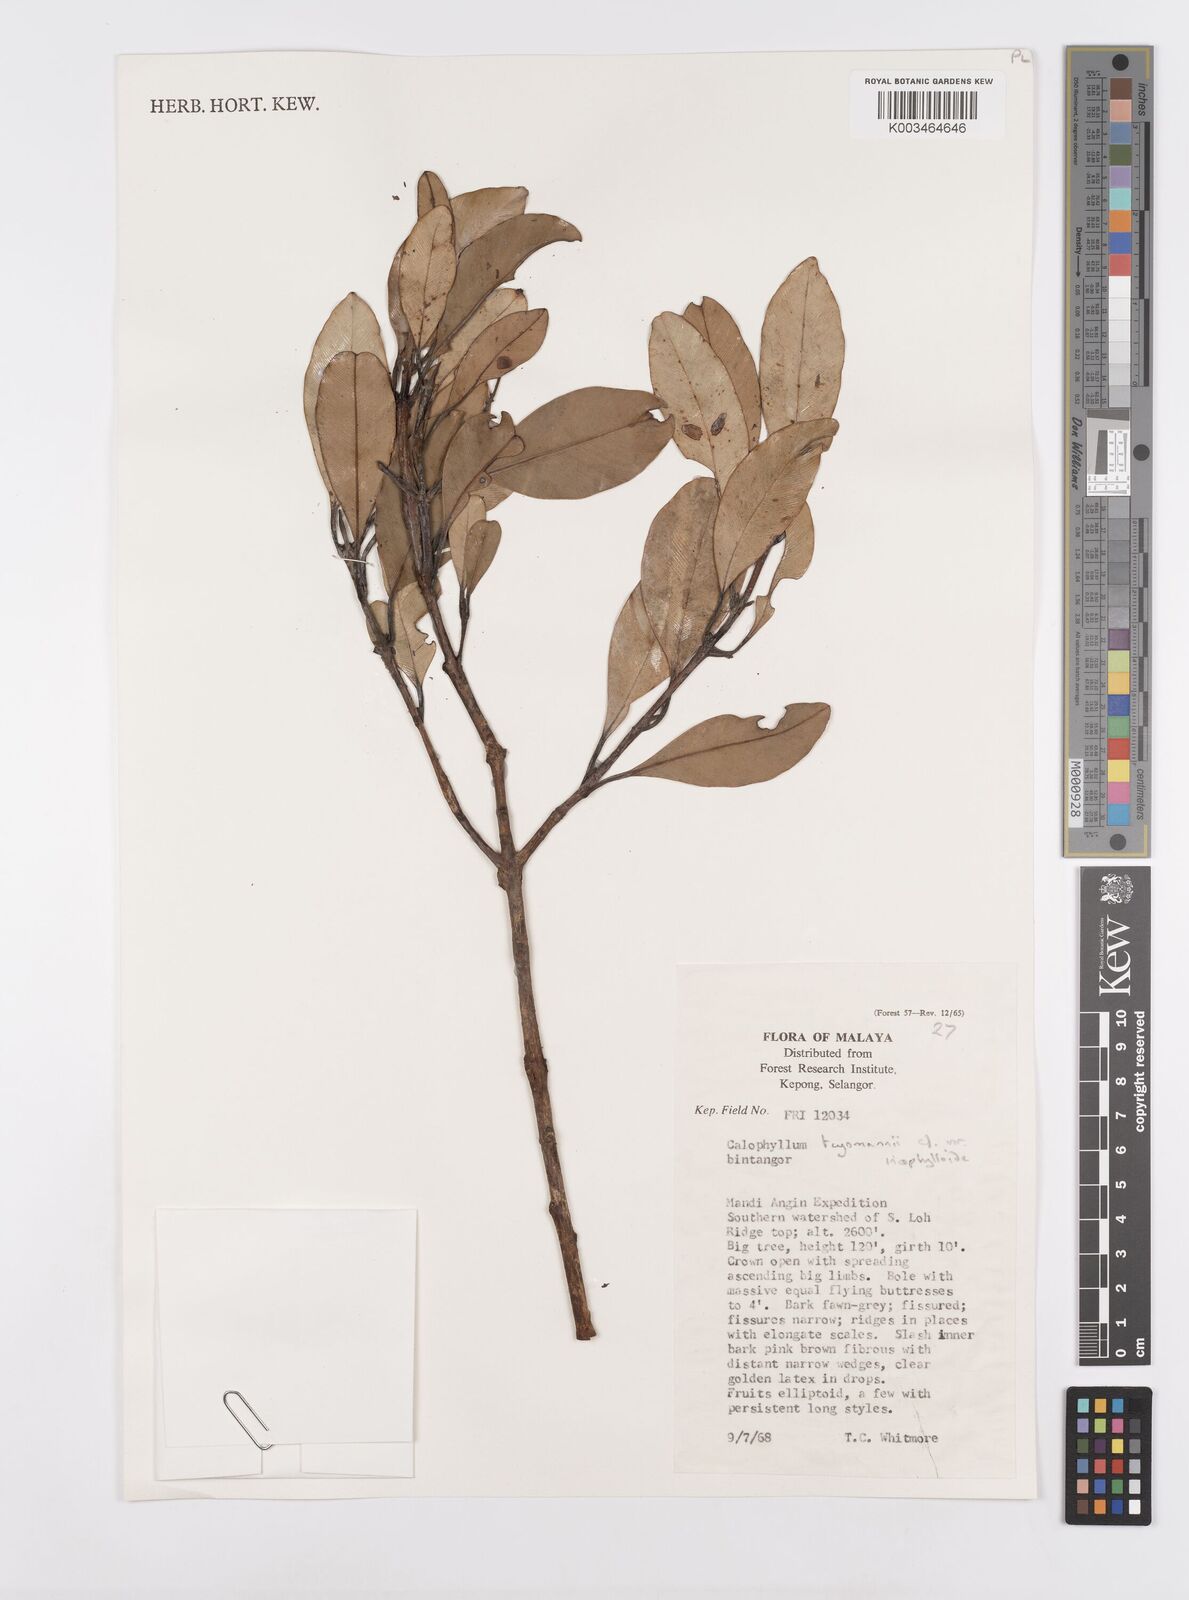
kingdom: Plantae
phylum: Tracheophyta
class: Magnoliopsida
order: Malpighiales
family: Calophyllaceae
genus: Calophyllum
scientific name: Calophyllum teysmannii
